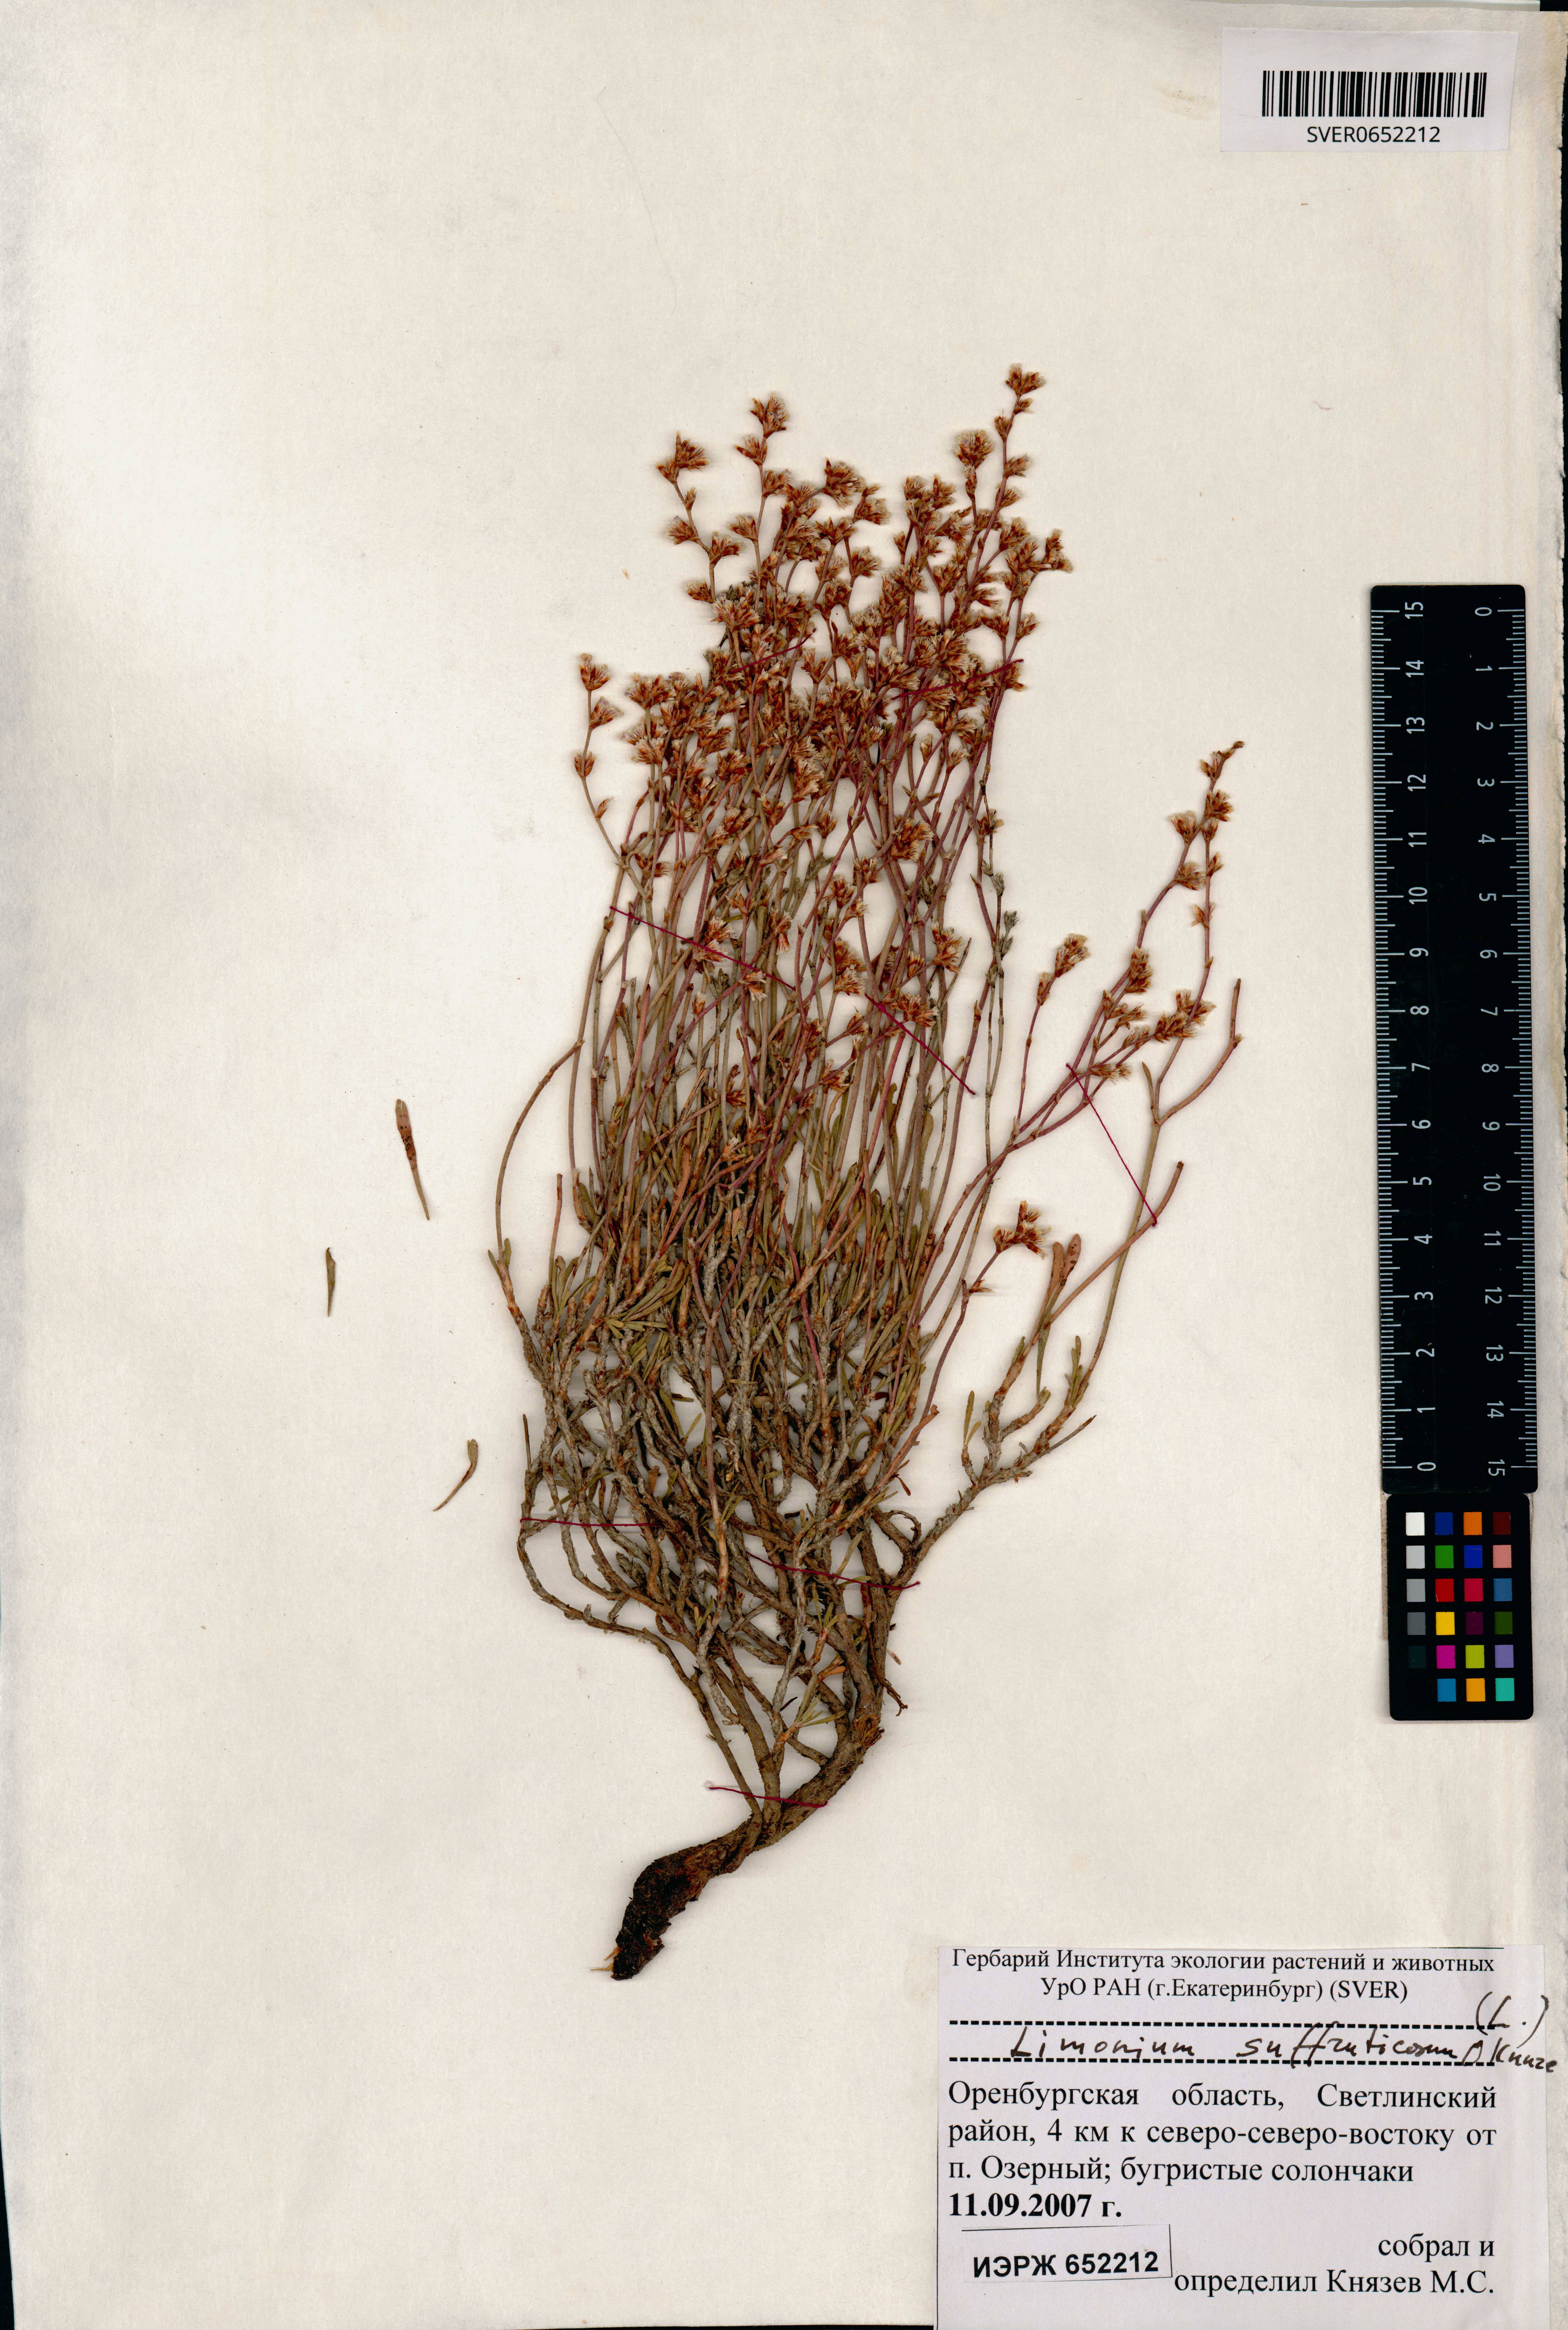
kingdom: Plantae
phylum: Tracheophyta
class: Magnoliopsida
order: Caryophyllales
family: Plumbaginaceae
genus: Limonium
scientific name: Limonium suffruticosum
